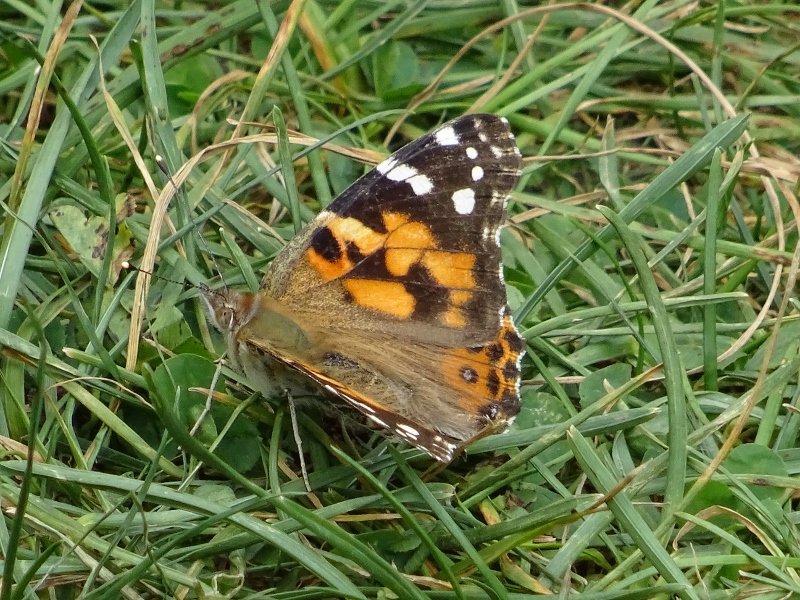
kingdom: Animalia
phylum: Arthropoda
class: Insecta
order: Lepidoptera
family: Nymphalidae
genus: Vanessa
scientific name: Vanessa cardui
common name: Painted Lady
